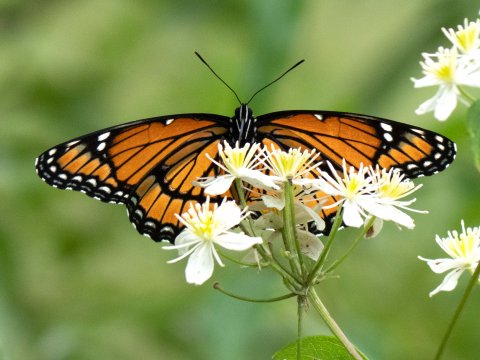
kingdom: Animalia
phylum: Arthropoda
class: Insecta
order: Lepidoptera
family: Nymphalidae
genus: Limenitis
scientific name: Limenitis archippus
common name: Viceroy
